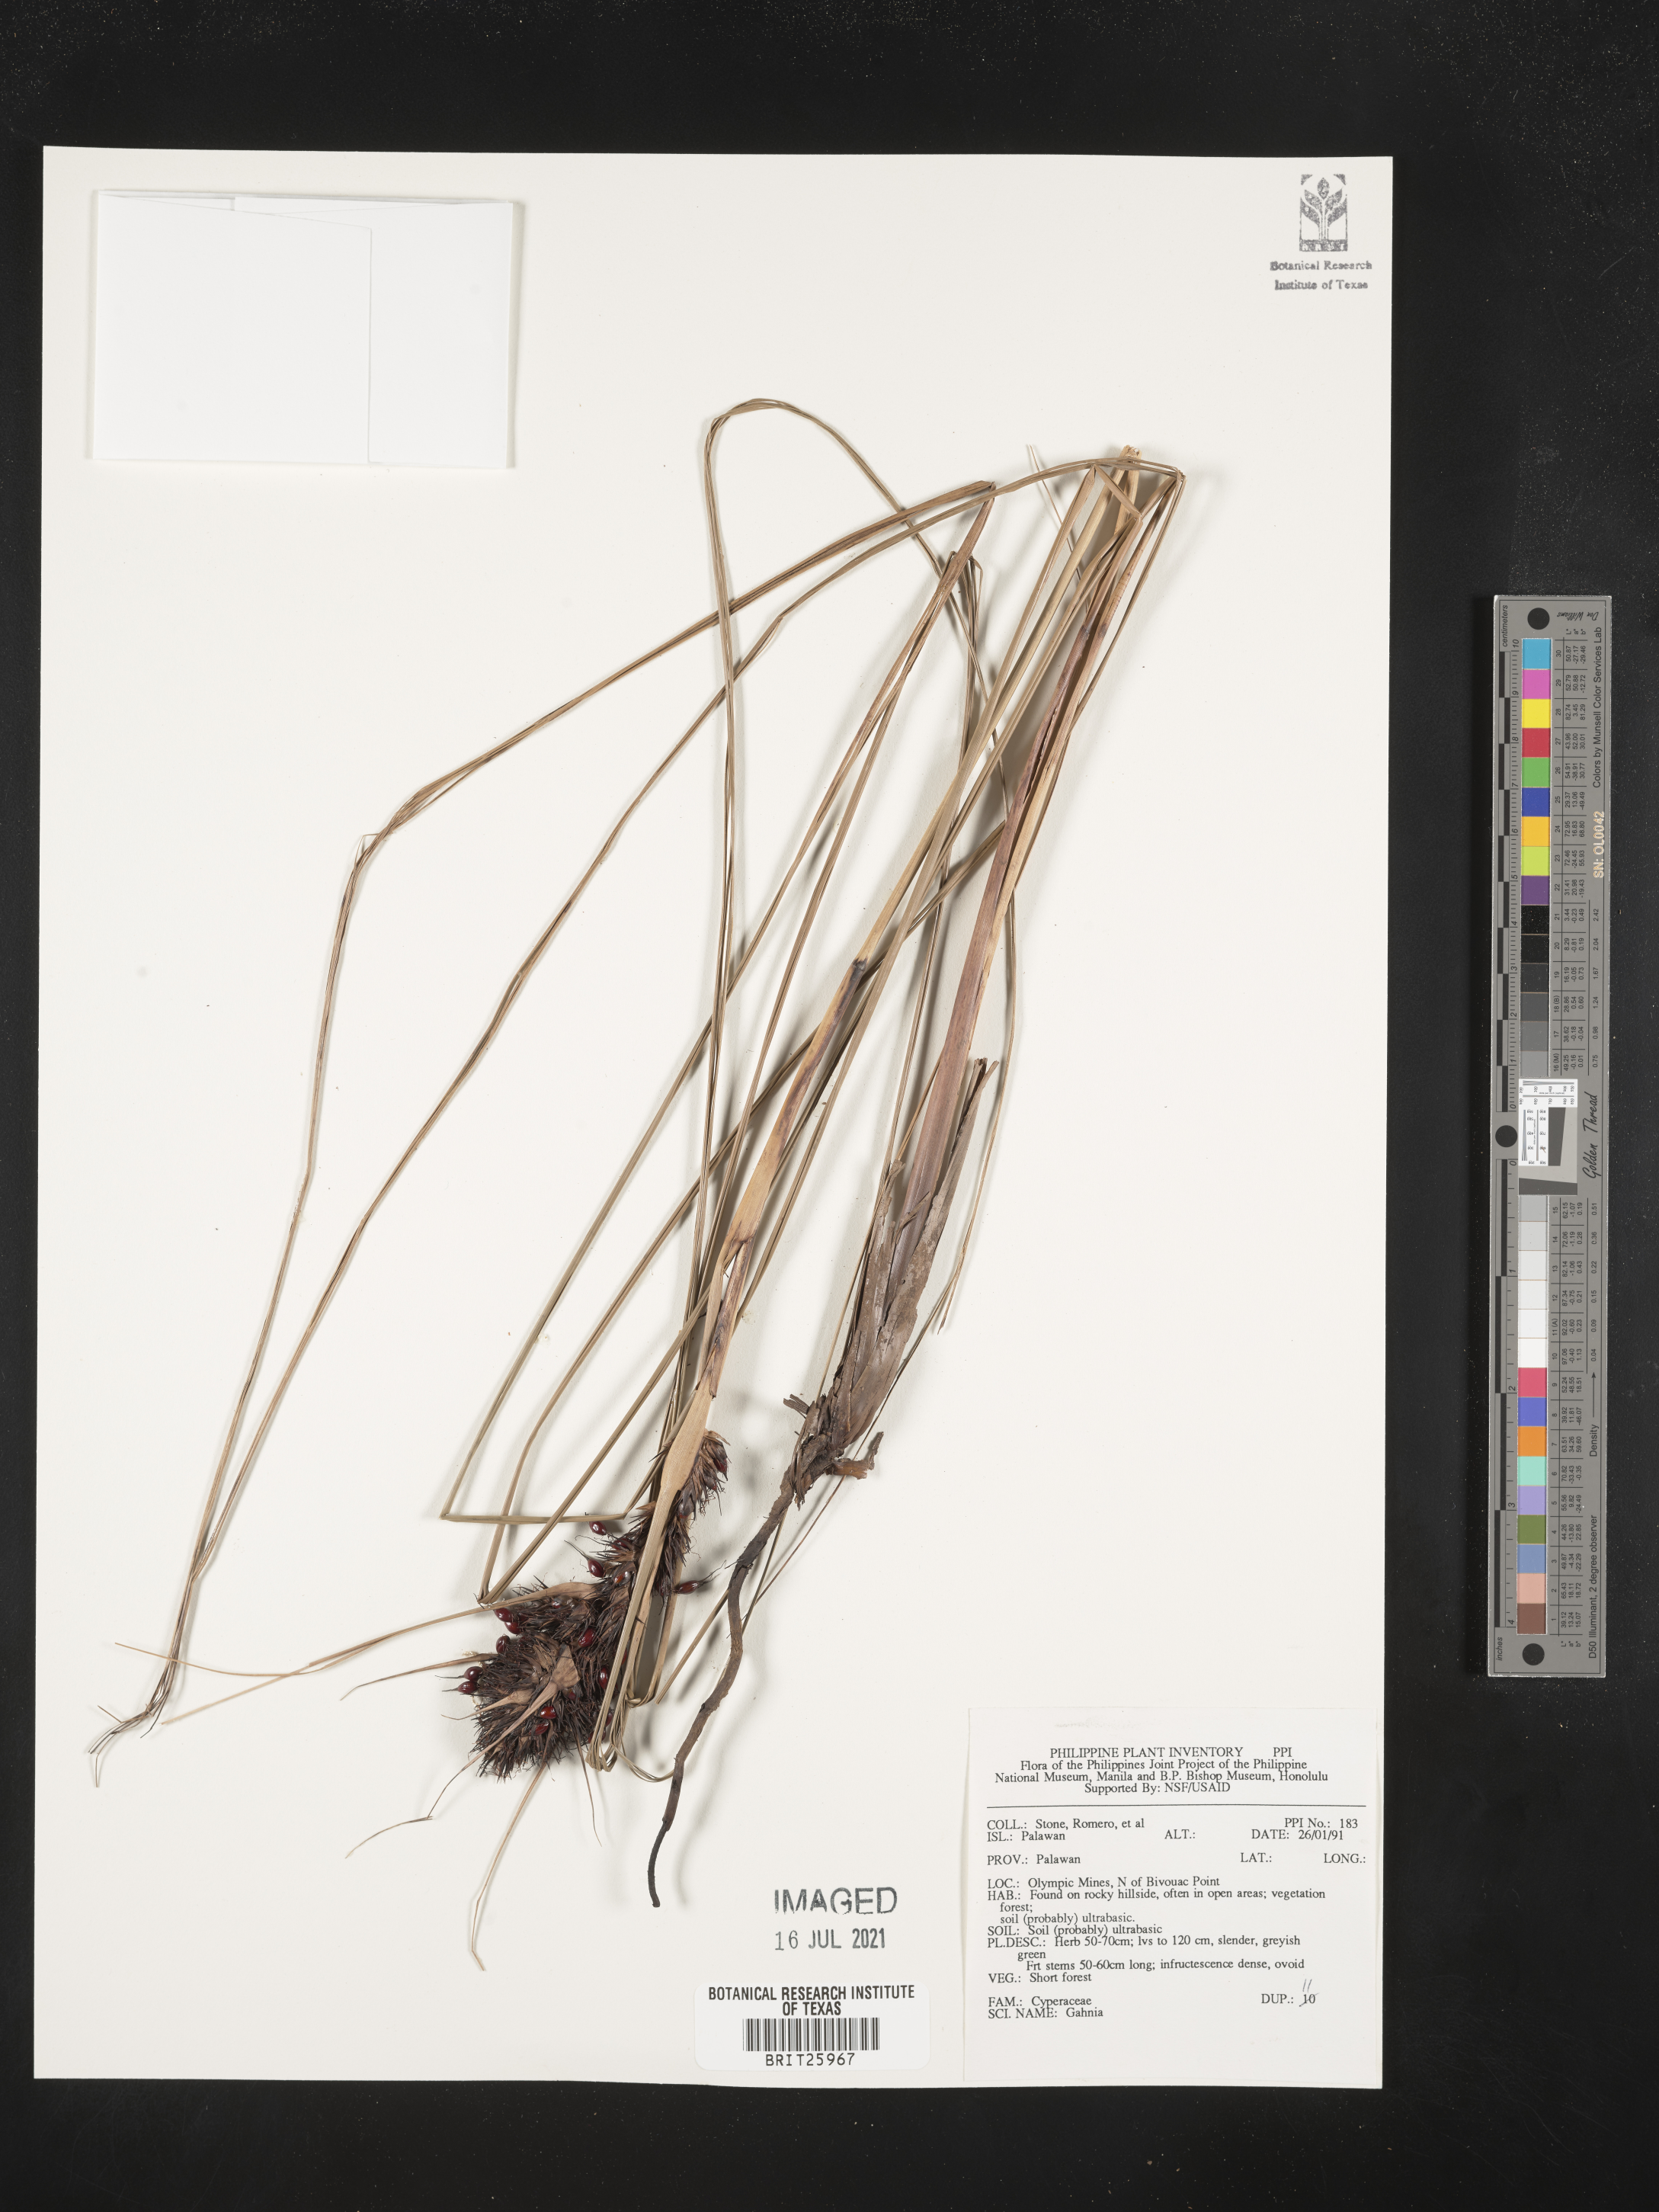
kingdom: Plantae
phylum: Tracheophyta
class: Liliopsida
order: Poales
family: Cyperaceae
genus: Gahnia
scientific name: Gahnia
